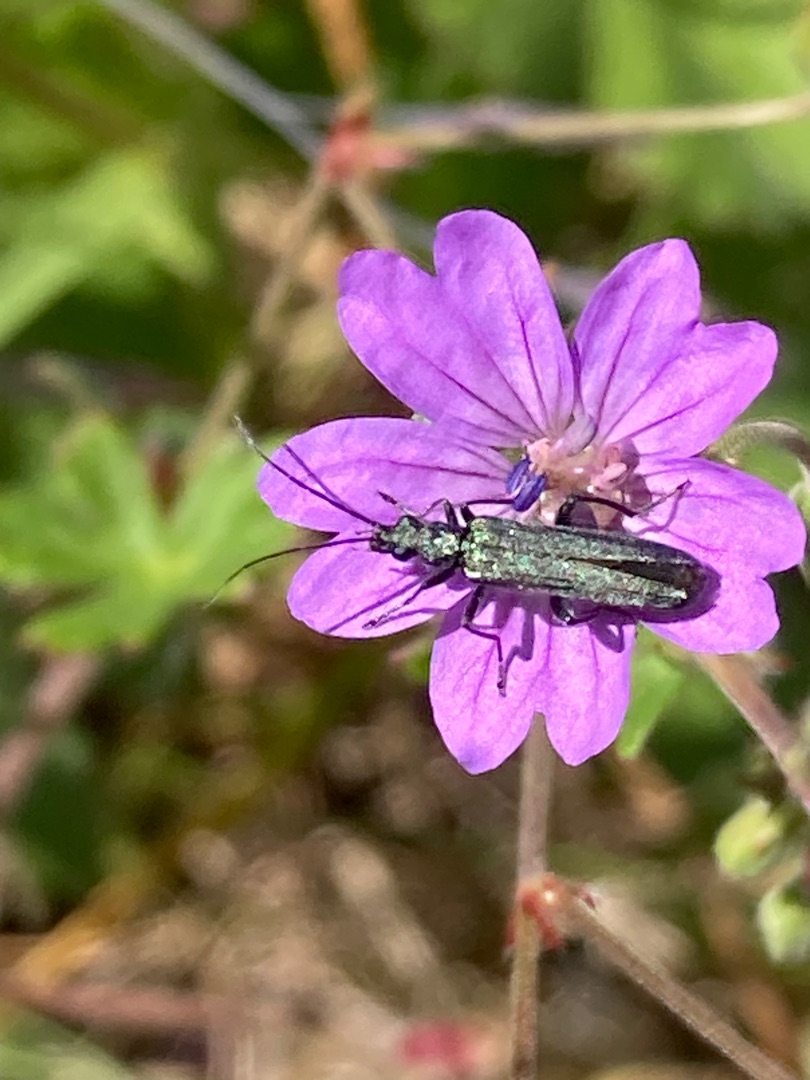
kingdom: Animalia
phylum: Arthropoda
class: Insecta
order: Coleoptera
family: Oedemeridae
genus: Oedemera
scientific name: Oedemera nobilis
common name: Tyklårssolbille
